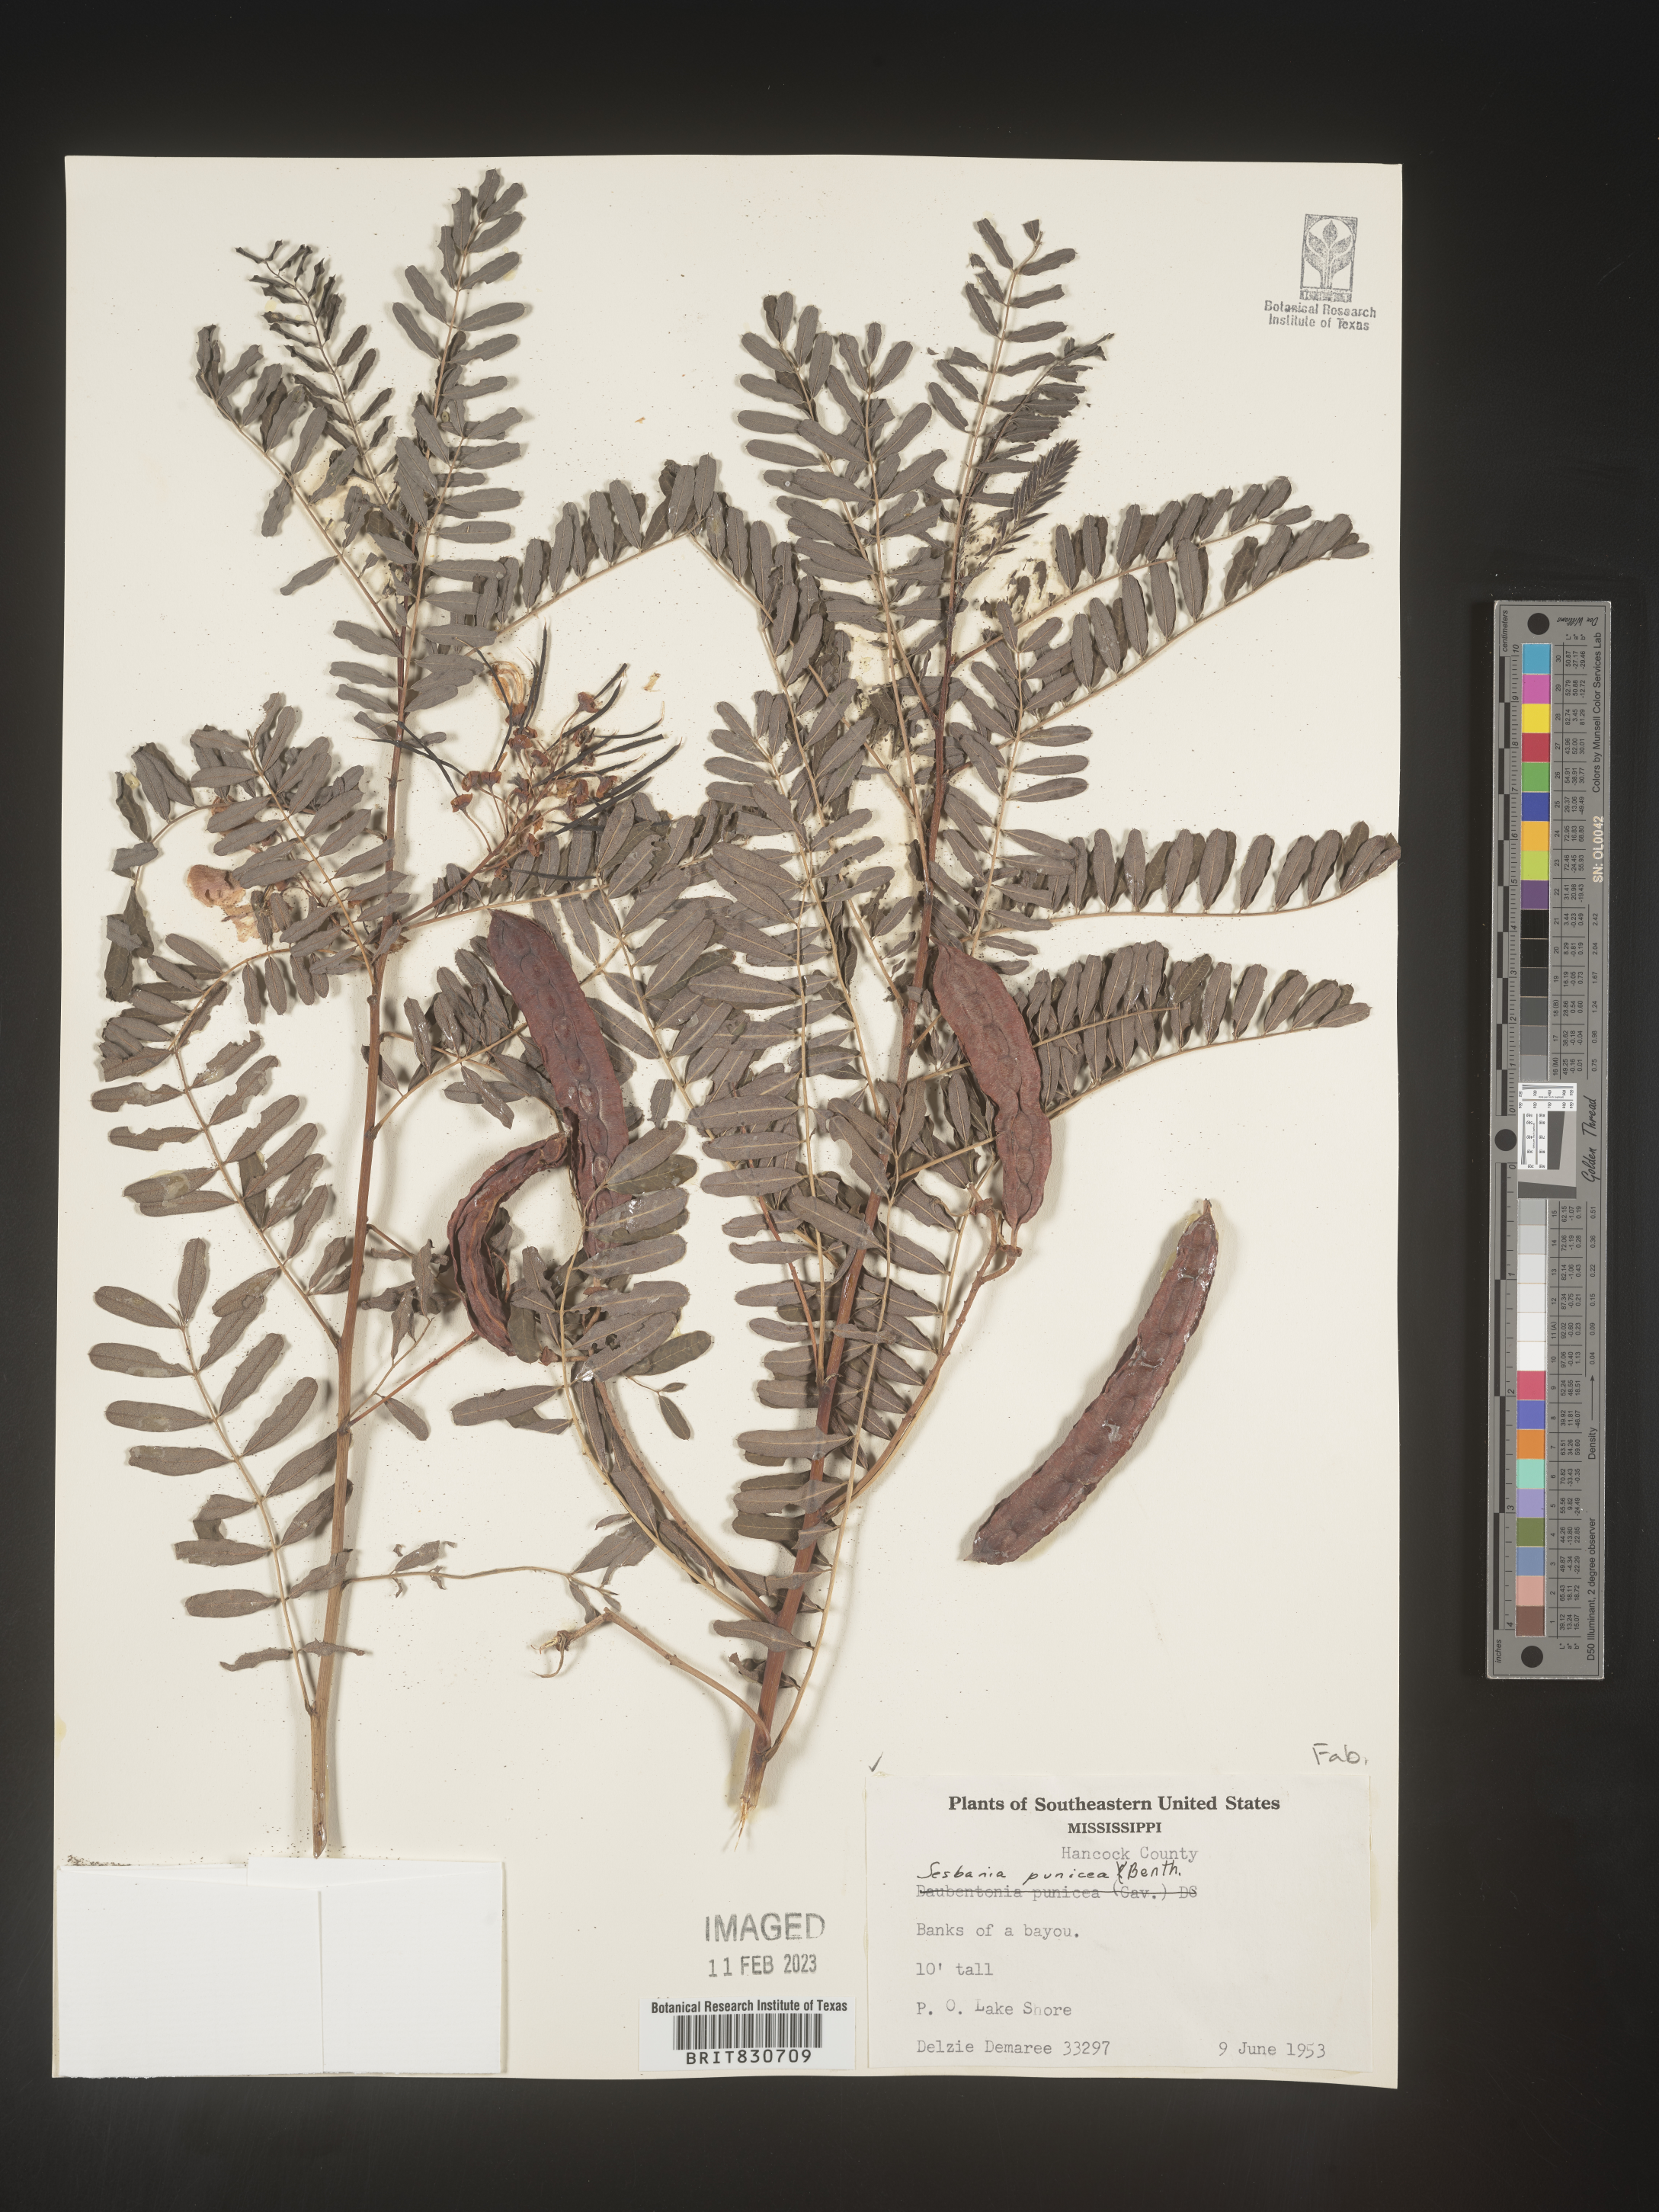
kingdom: Plantae
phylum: Tracheophyta
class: Magnoliopsida
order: Fabales
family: Fabaceae
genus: Sesbania
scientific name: Sesbania punicea
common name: Rattlebox
